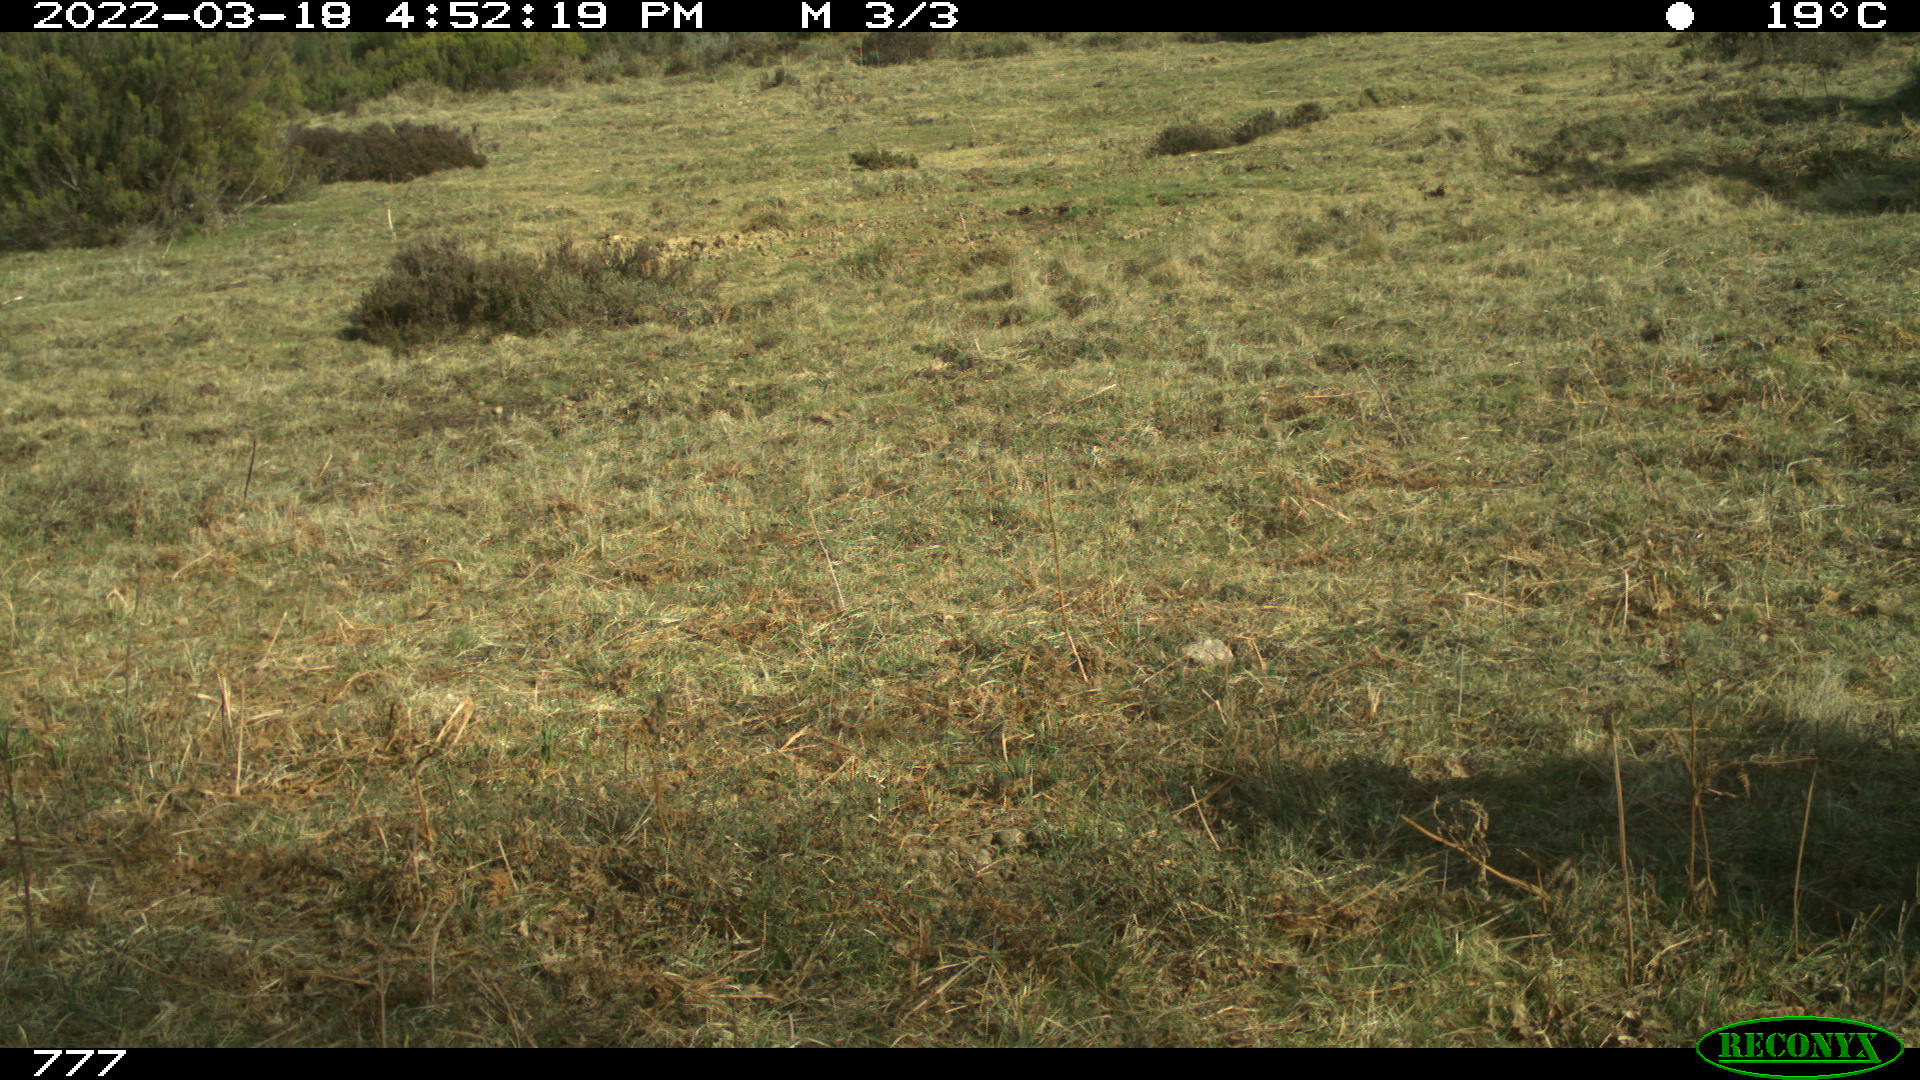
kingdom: Animalia
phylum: Chordata
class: Mammalia
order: Artiodactyla
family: Bovidae
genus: Bos
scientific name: Bos taurus
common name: Domesticated cattle
